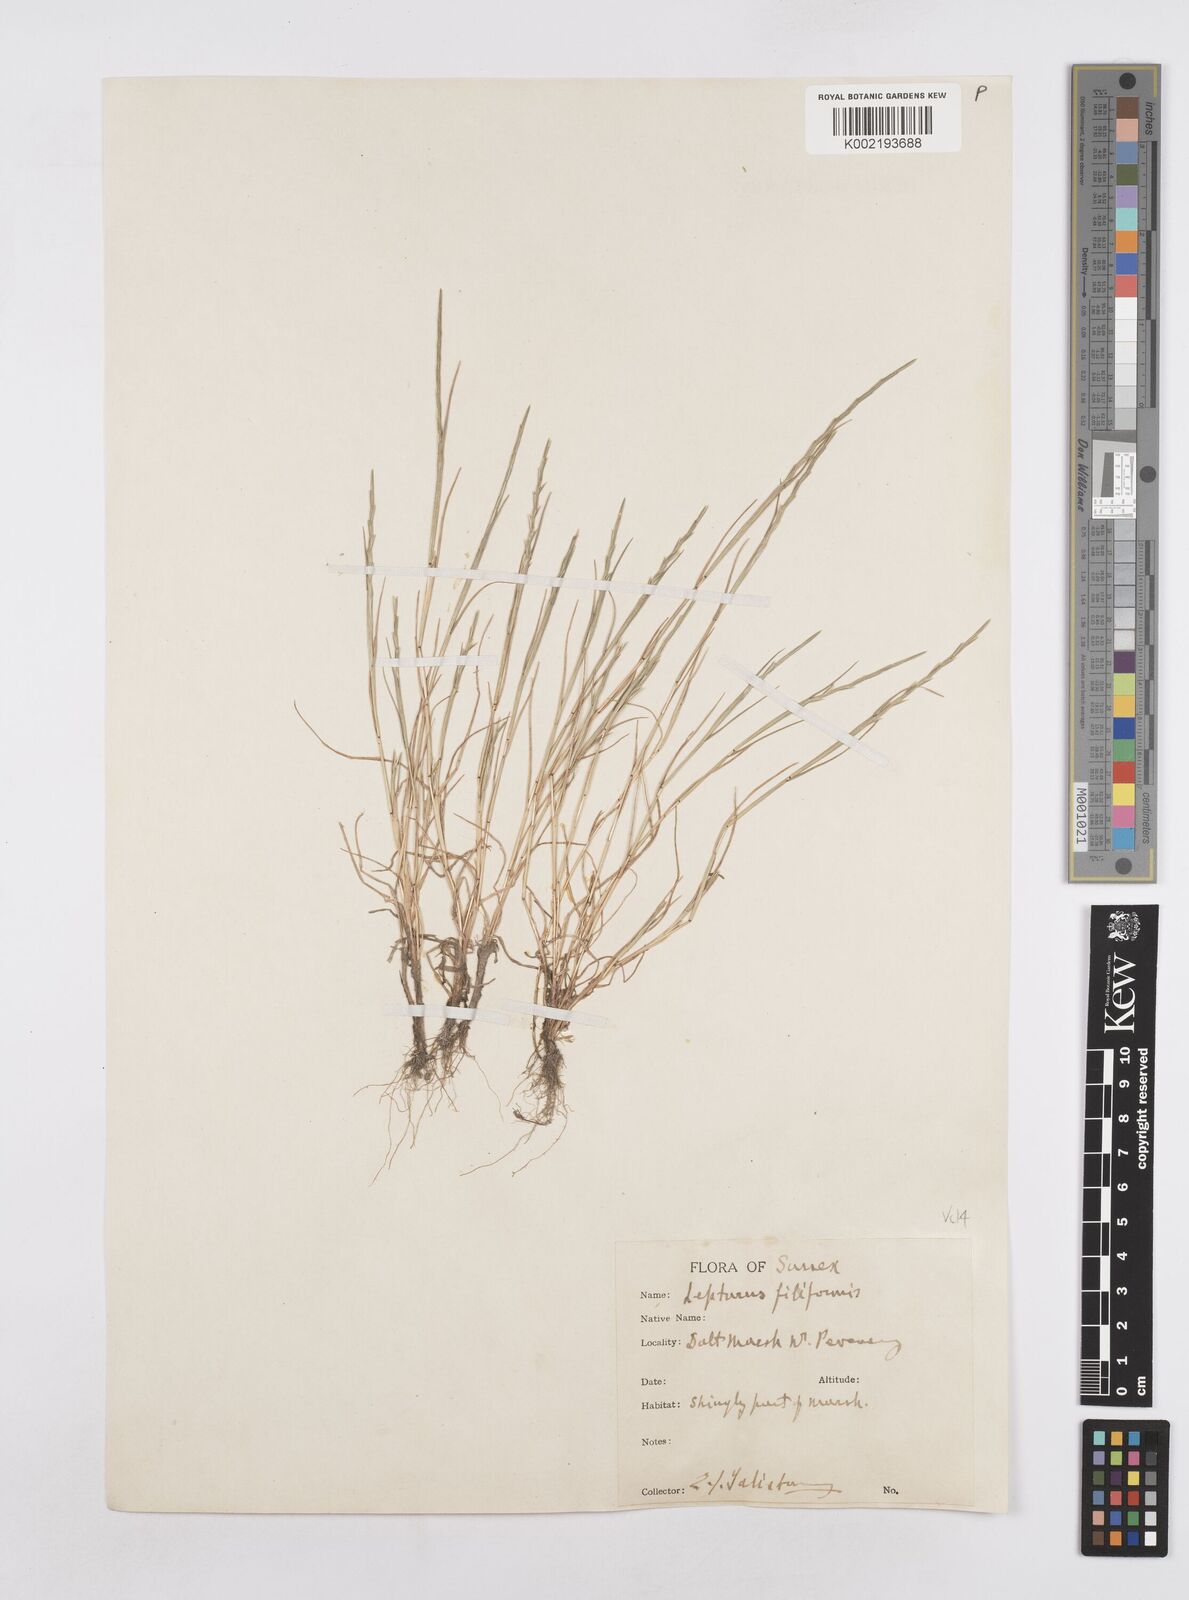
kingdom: Plantae
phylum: Tracheophyta
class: Liliopsida
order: Poales
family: Poaceae
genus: Parapholis
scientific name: Parapholis strigosa
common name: Hard-grass
